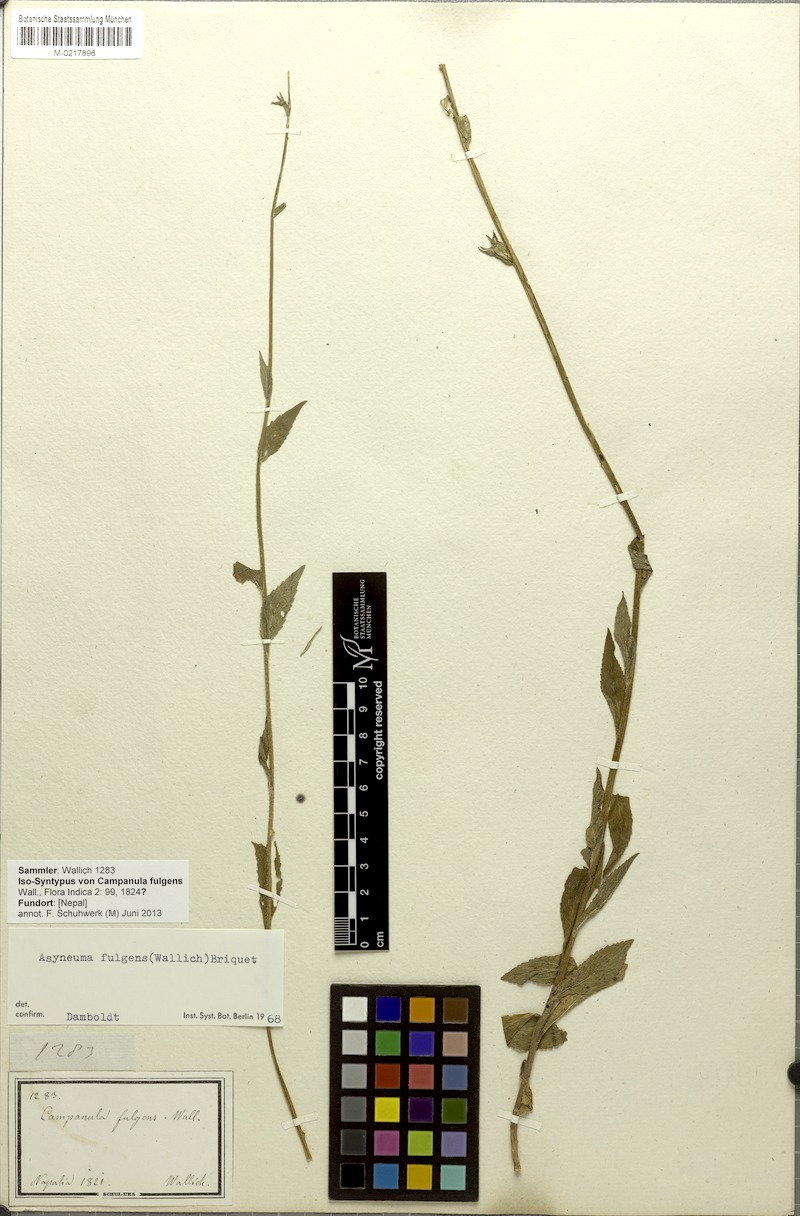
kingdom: Plantae
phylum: Tracheophyta
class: Magnoliopsida
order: Asterales
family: Campanulaceae
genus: Asyneuma
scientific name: Asyneuma fulgens
